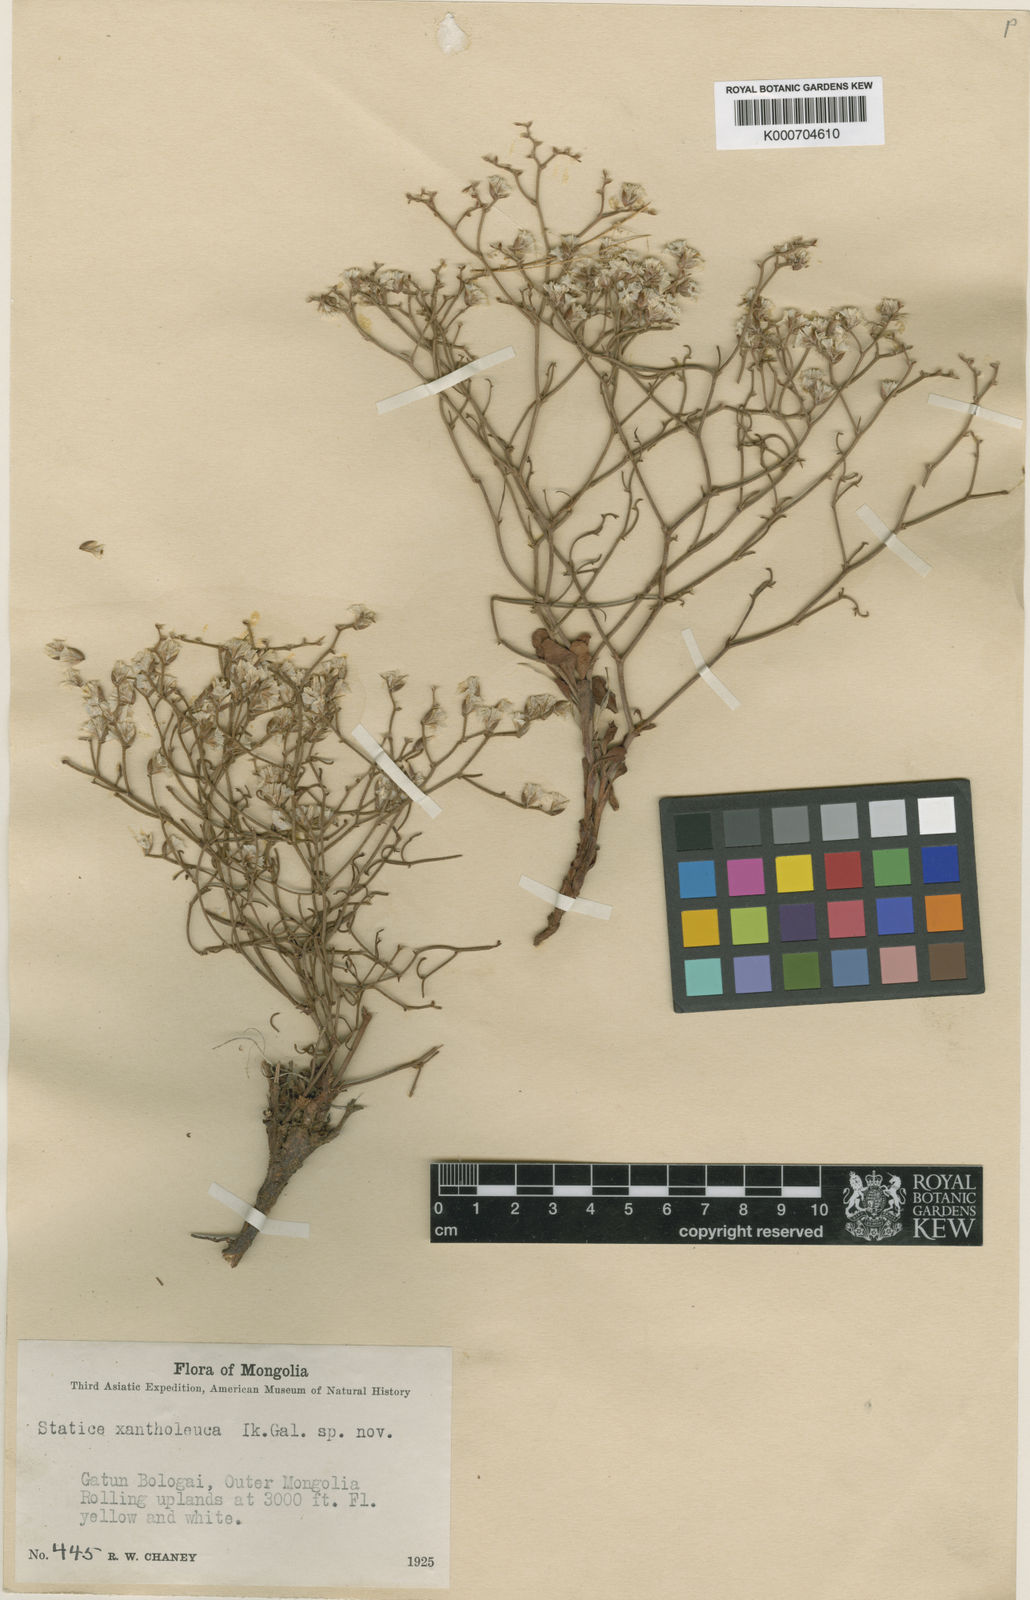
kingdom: Plantae
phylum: Tracheophyta
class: Magnoliopsida
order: Caryophyllales
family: Plumbaginaceae
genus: Limonium
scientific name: Limonium
